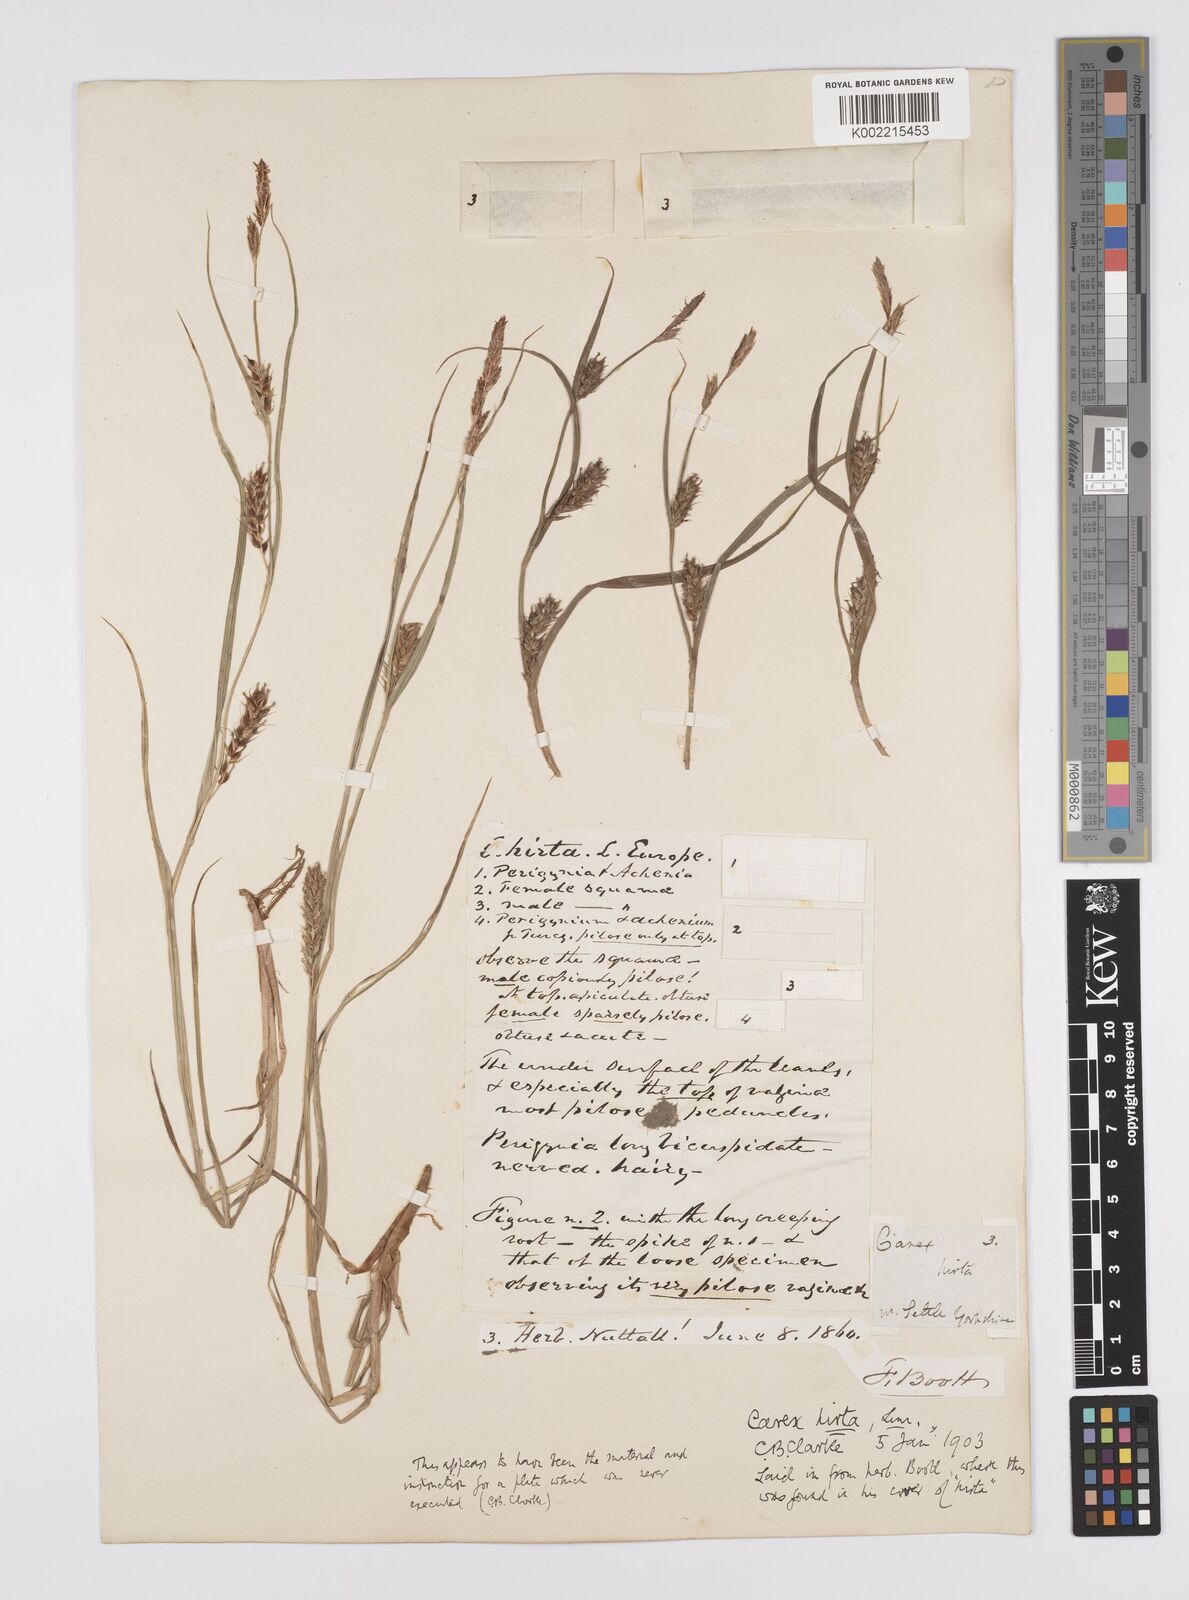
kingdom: Plantae
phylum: Tracheophyta
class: Liliopsida
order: Poales
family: Cyperaceae
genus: Carex
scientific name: Carex hirta
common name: Hairy sedge
